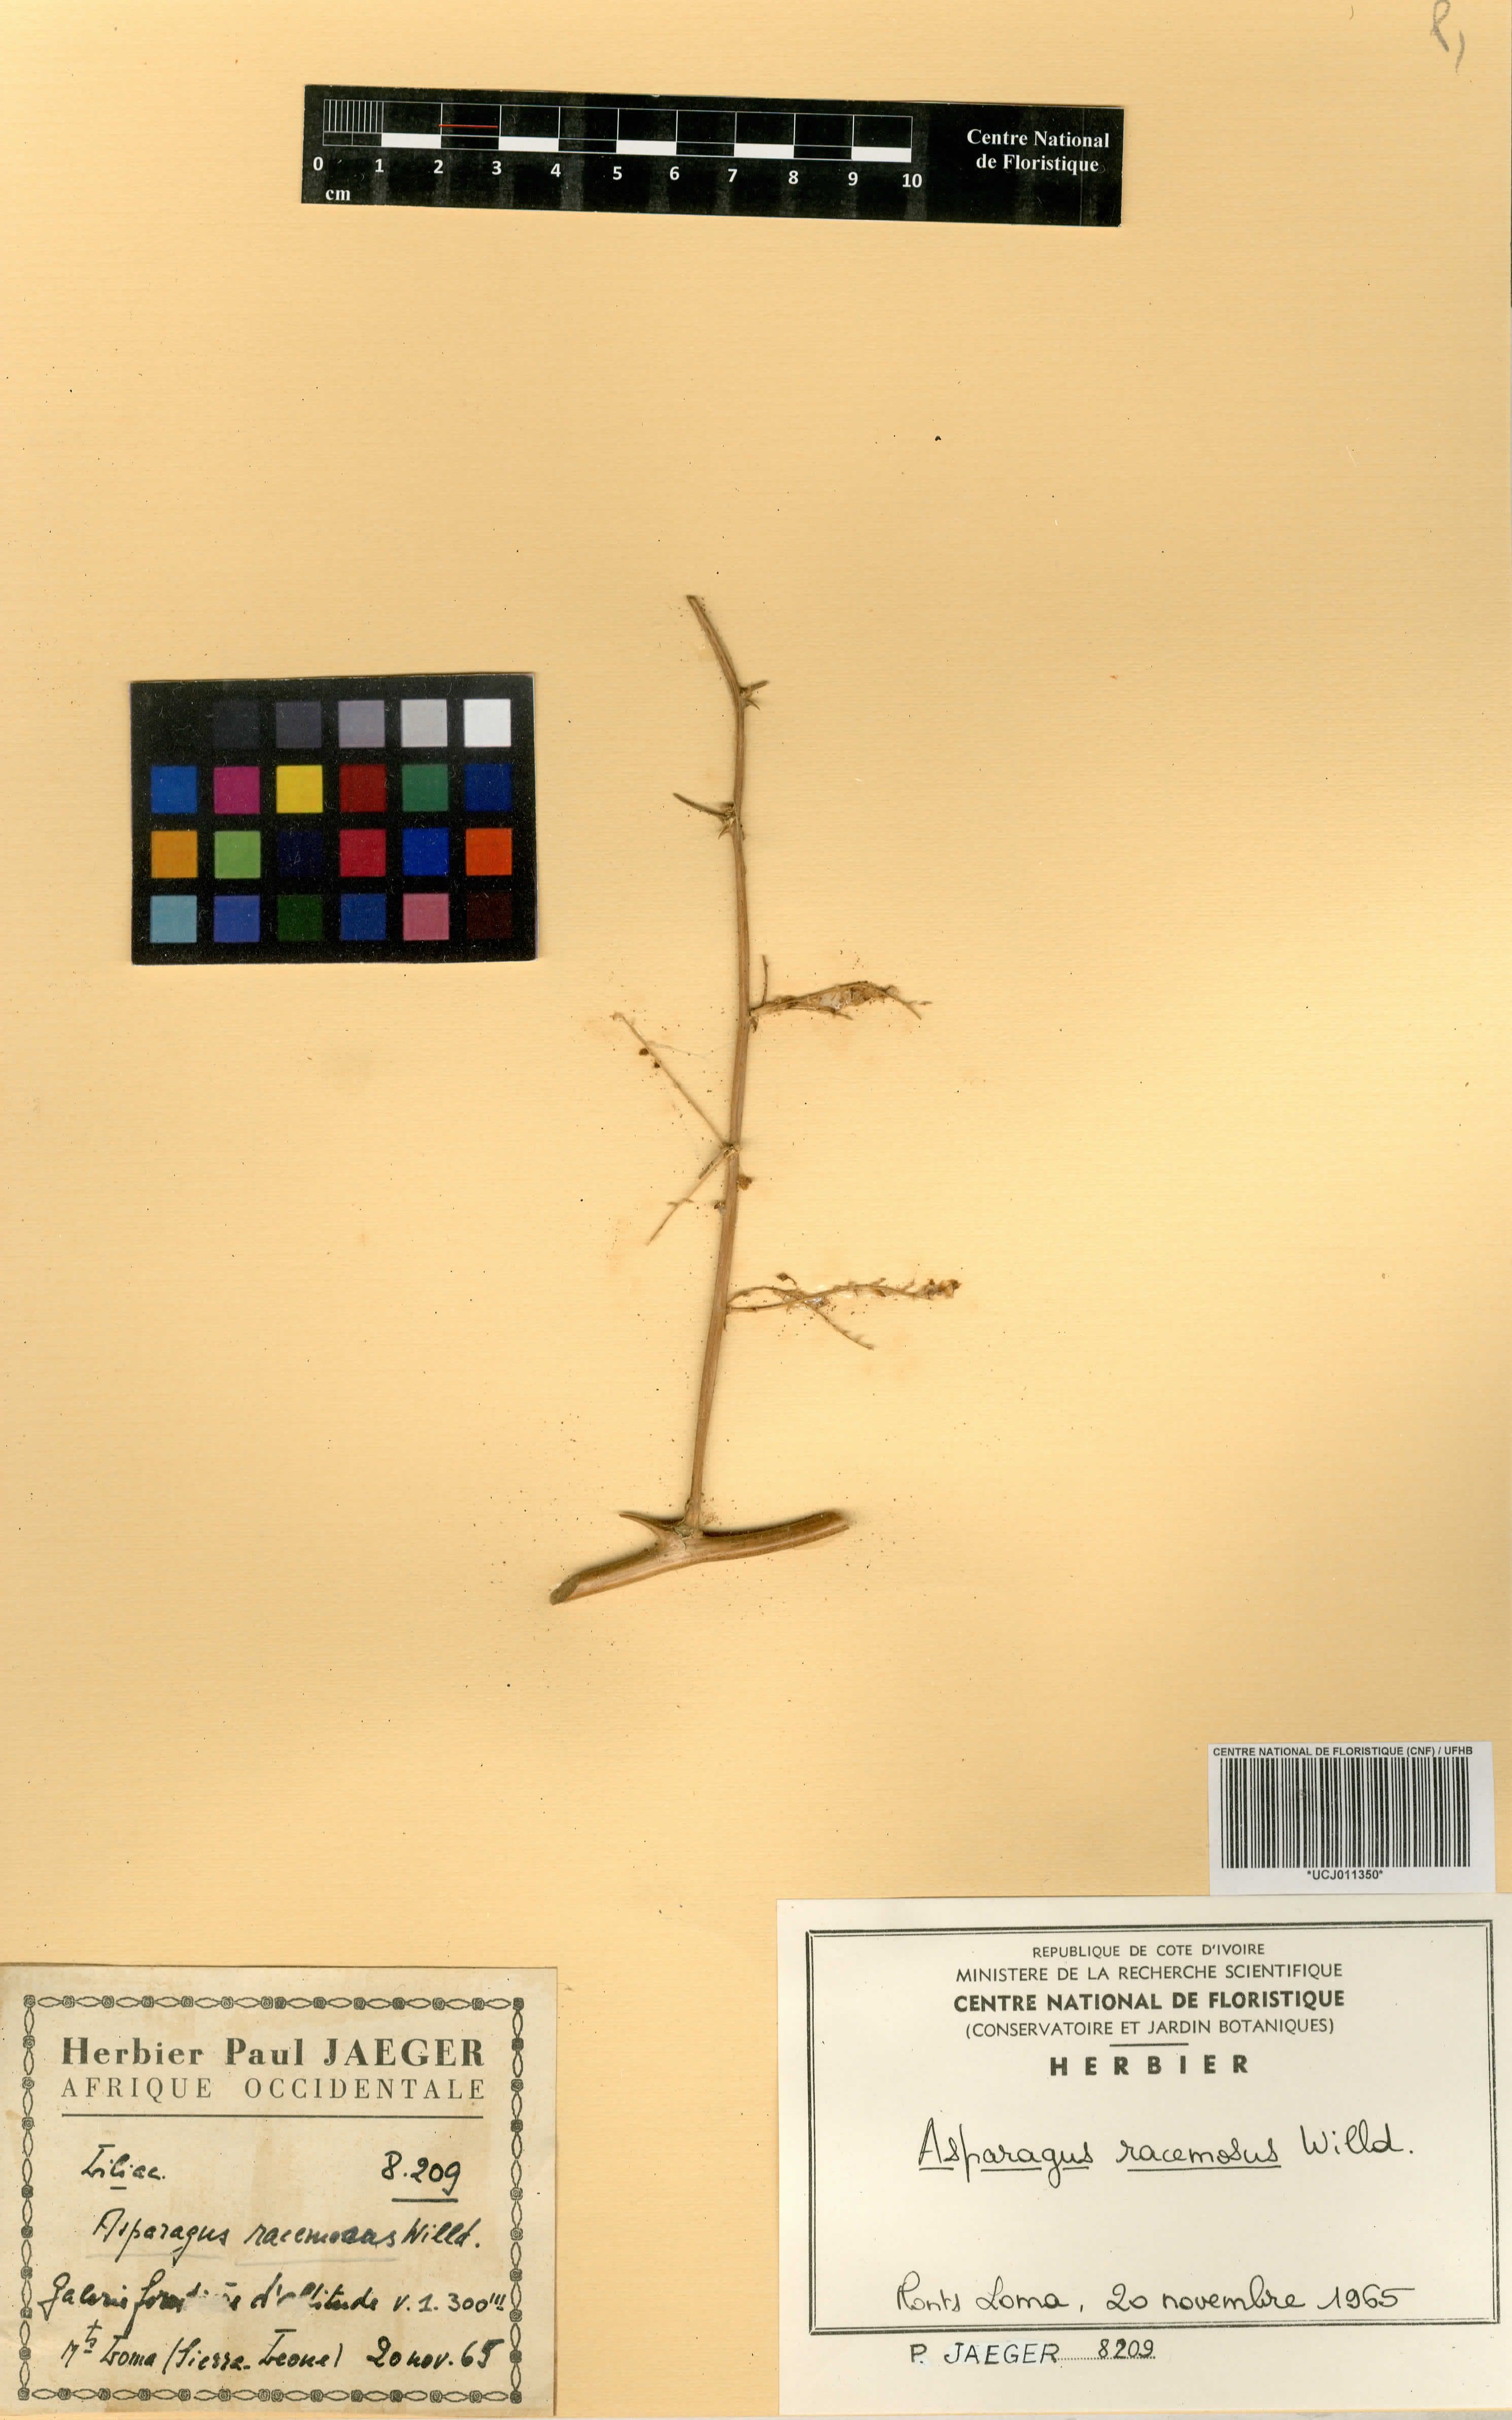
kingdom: Plantae
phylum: Tracheophyta
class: Liliopsida
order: Asparagales
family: Asparagaceae
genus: Asparagus
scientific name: Asparagus racemosus
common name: Asparagus-fern
